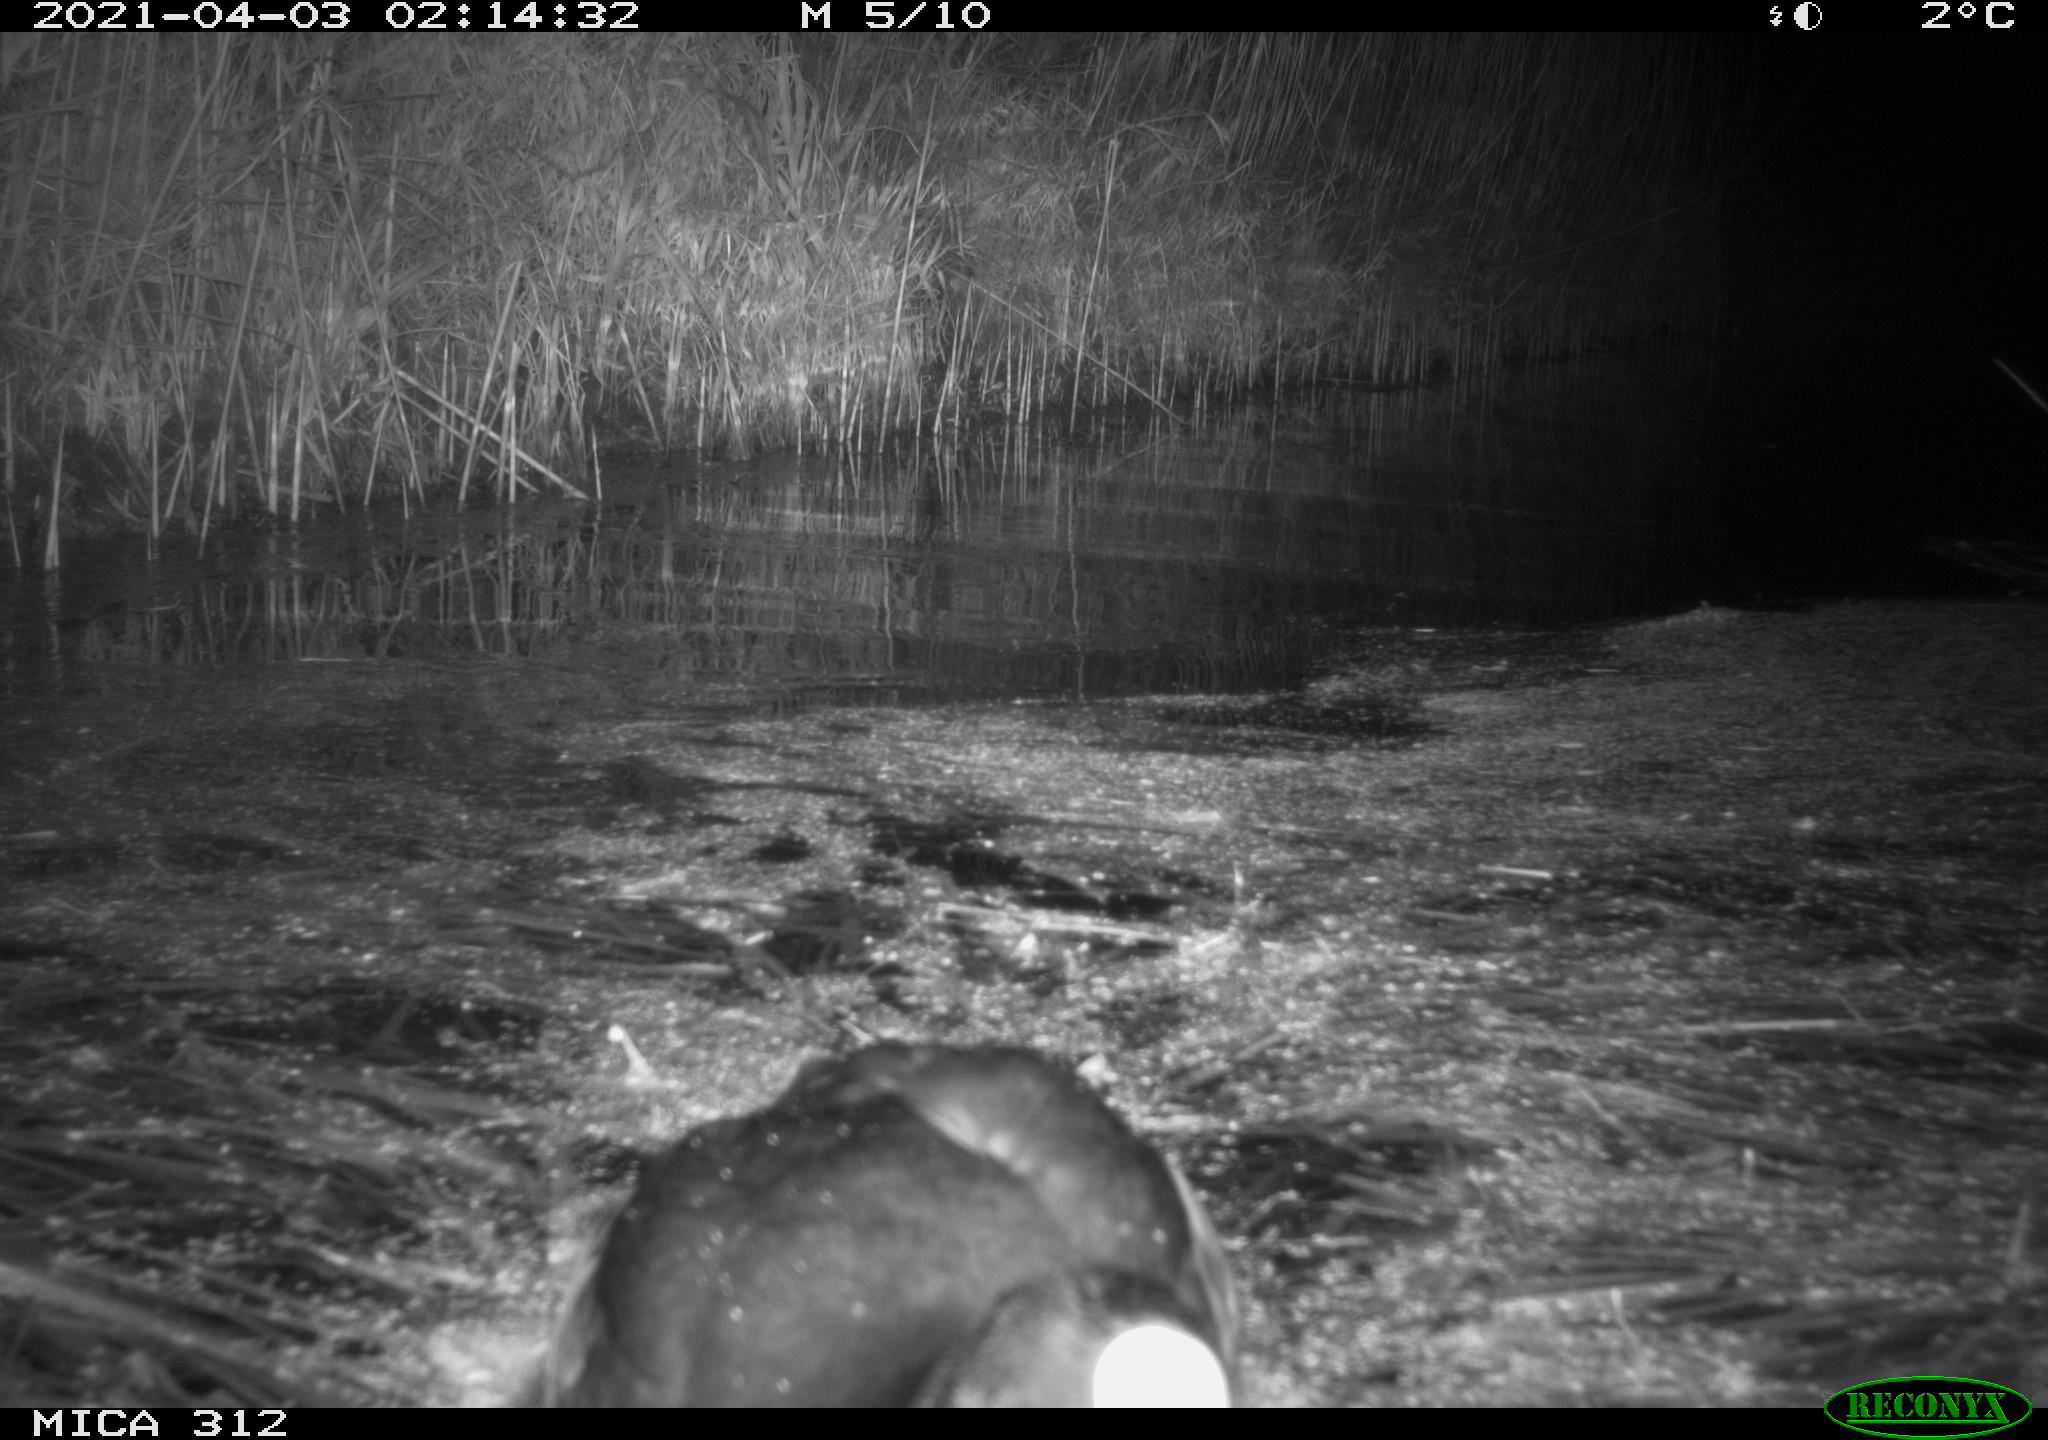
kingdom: Animalia
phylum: Chordata
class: Aves
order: Gruiformes
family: Rallidae
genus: Fulica
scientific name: Fulica atra
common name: Eurasian coot
